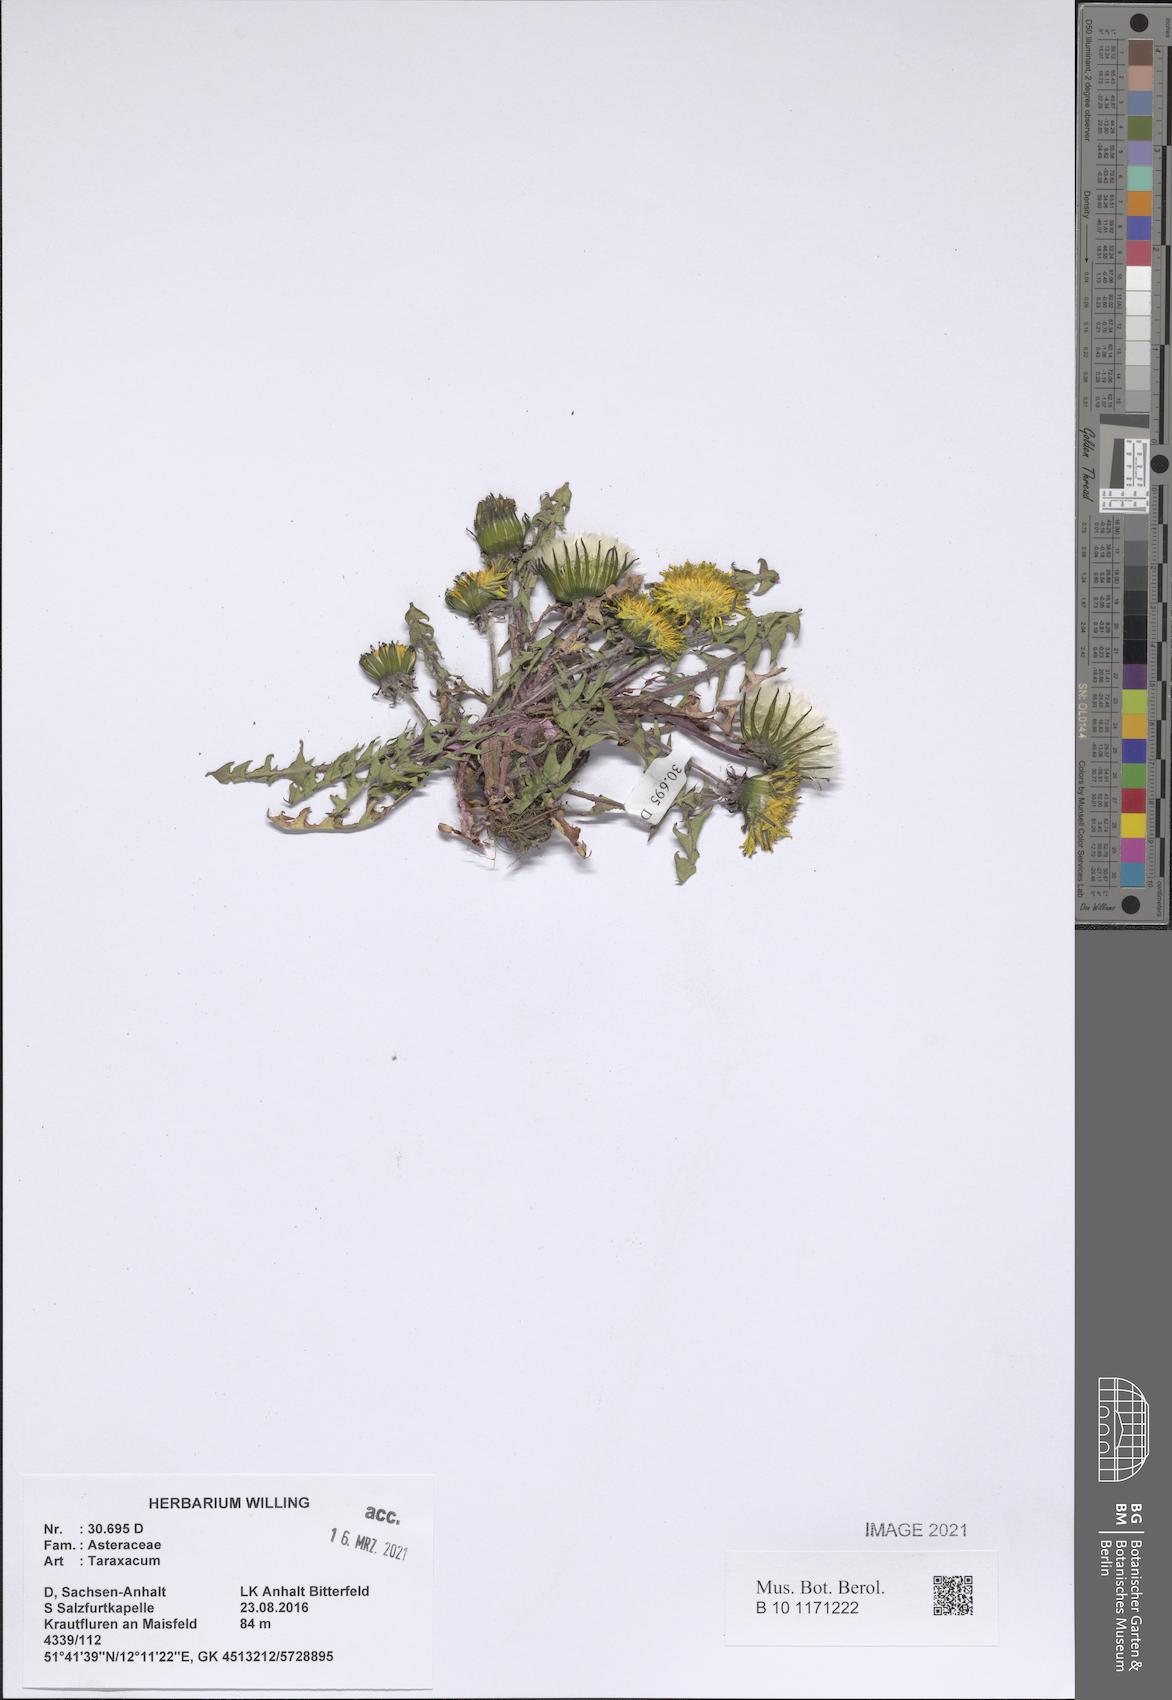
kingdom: Plantae
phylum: Tracheophyta
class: Magnoliopsida
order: Asterales
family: Asteraceae
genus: Taraxacum
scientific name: Taraxacum
